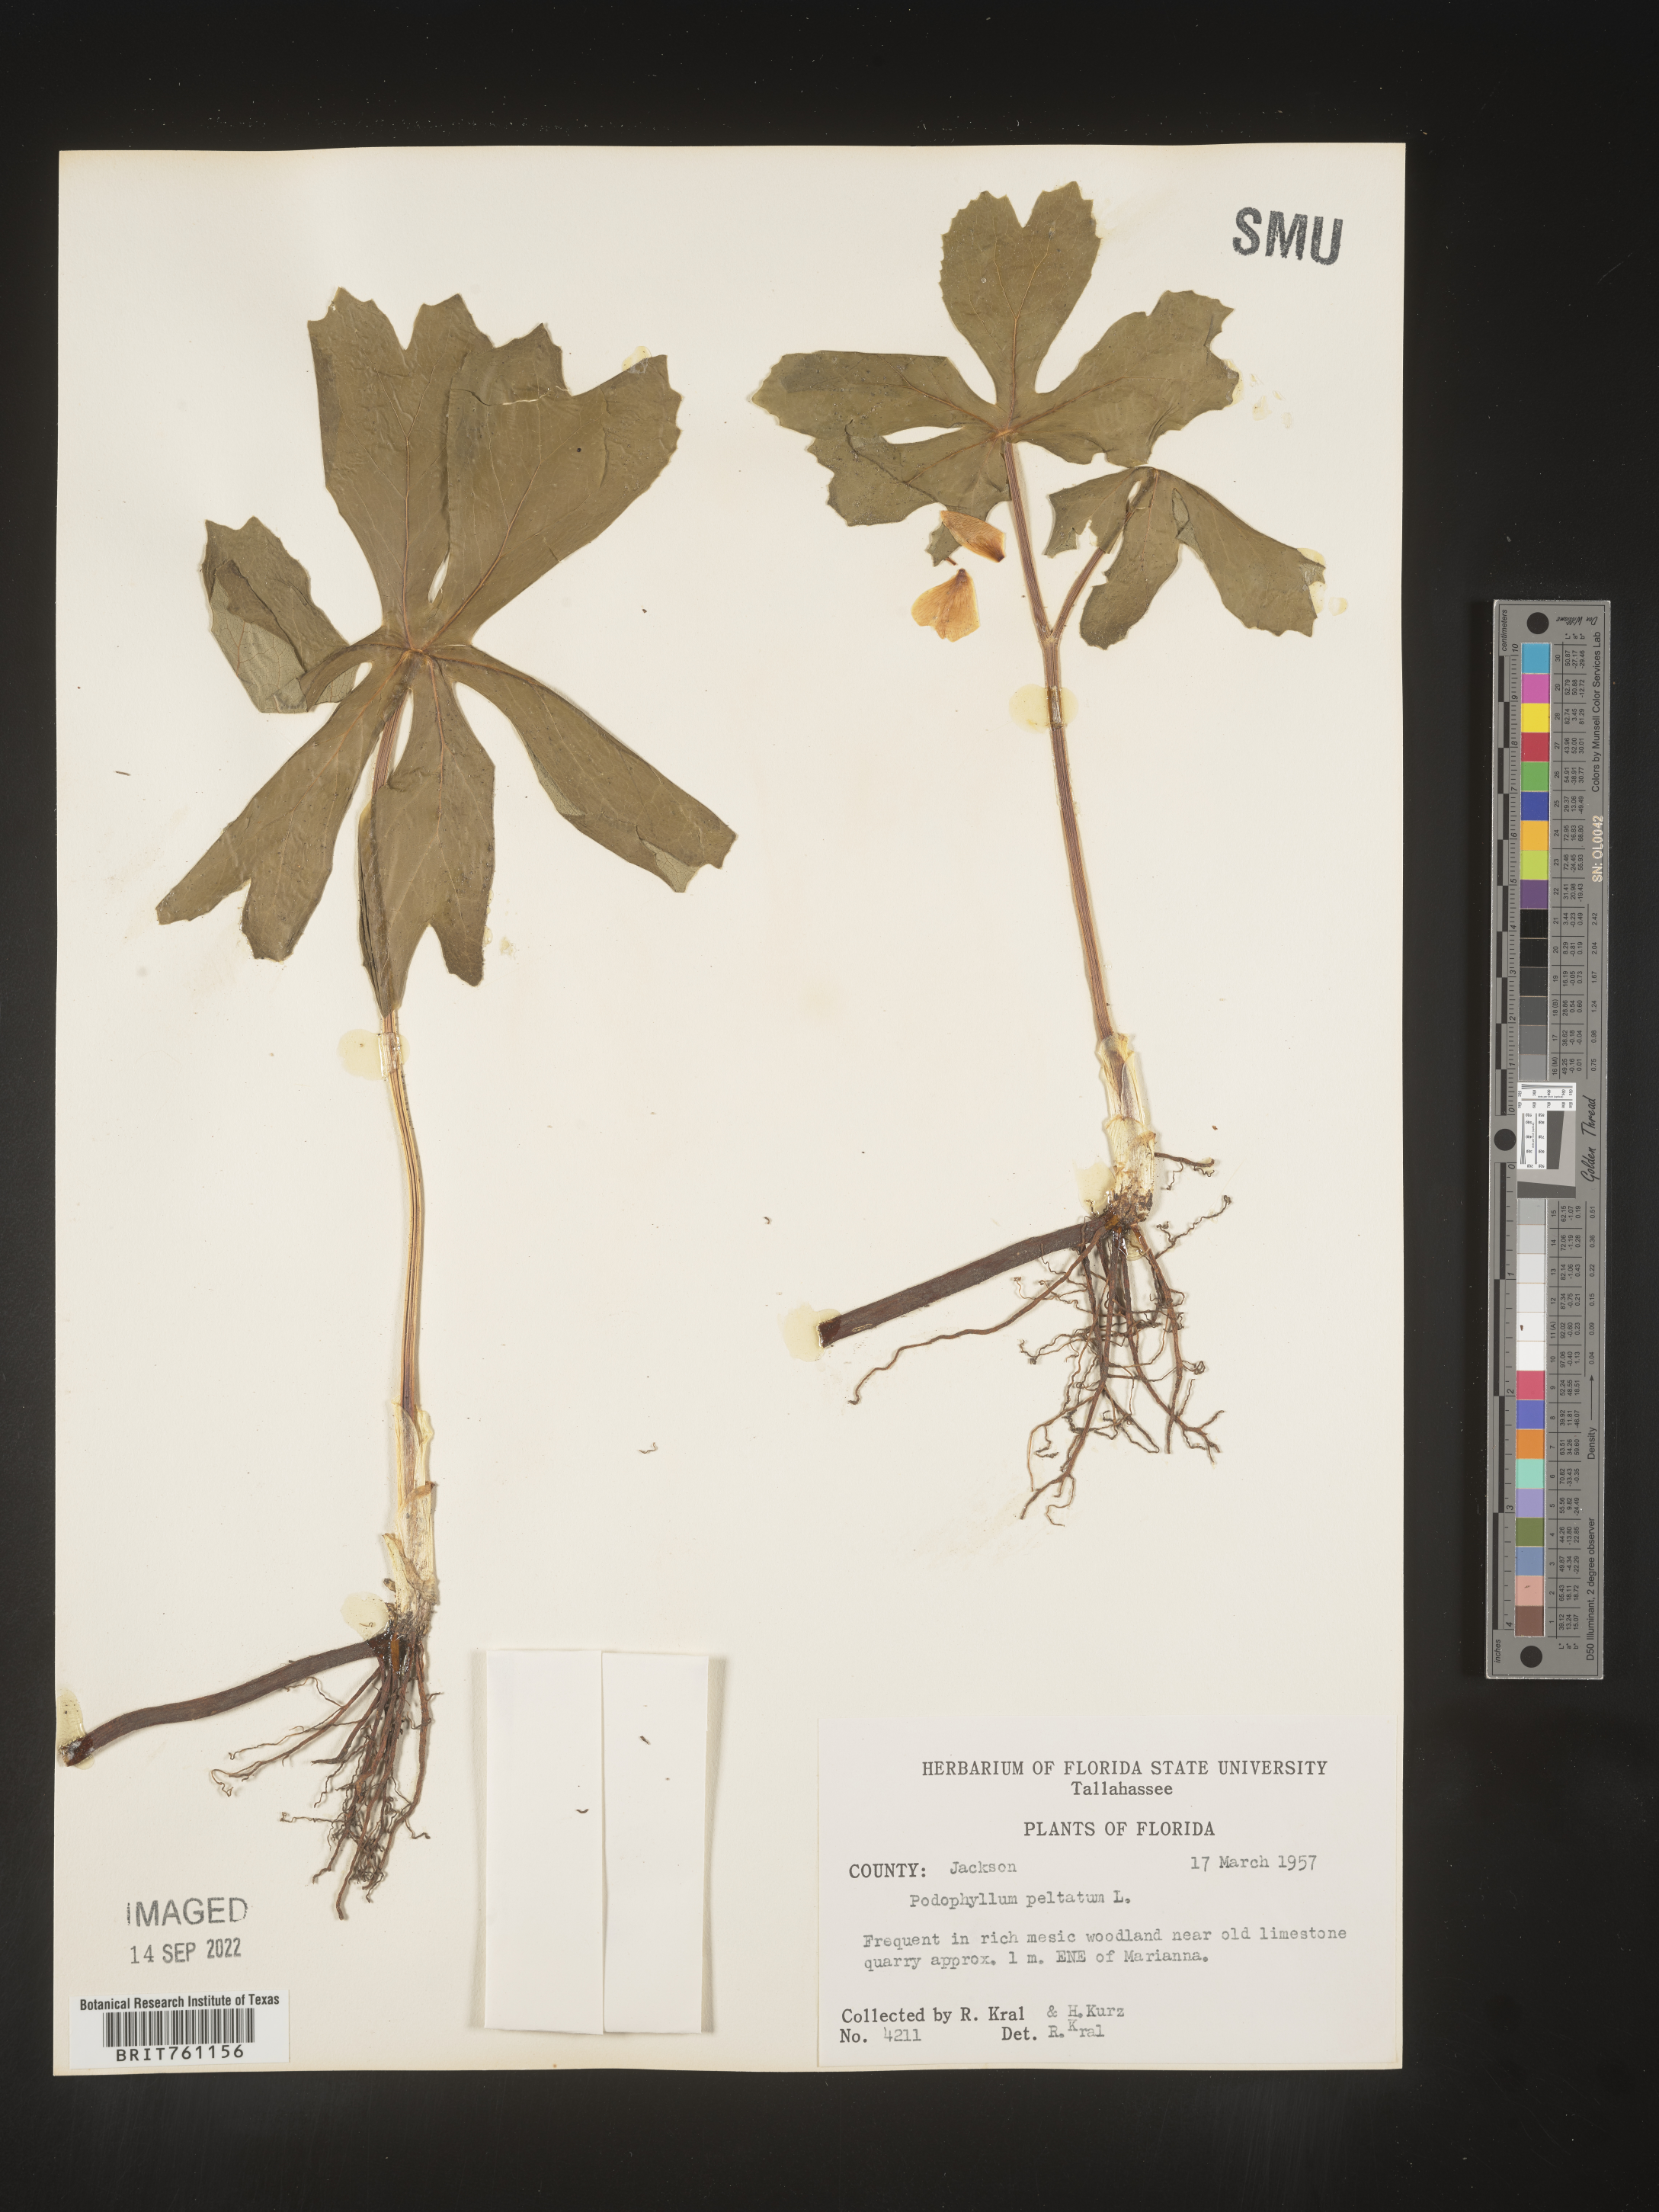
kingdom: Plantae
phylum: Tracheophyta
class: Magnoliopsida
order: Ranunculales
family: Berberidaceae
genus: Podophyllum
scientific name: Podophyllum peltatum
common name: Wild mandrake
